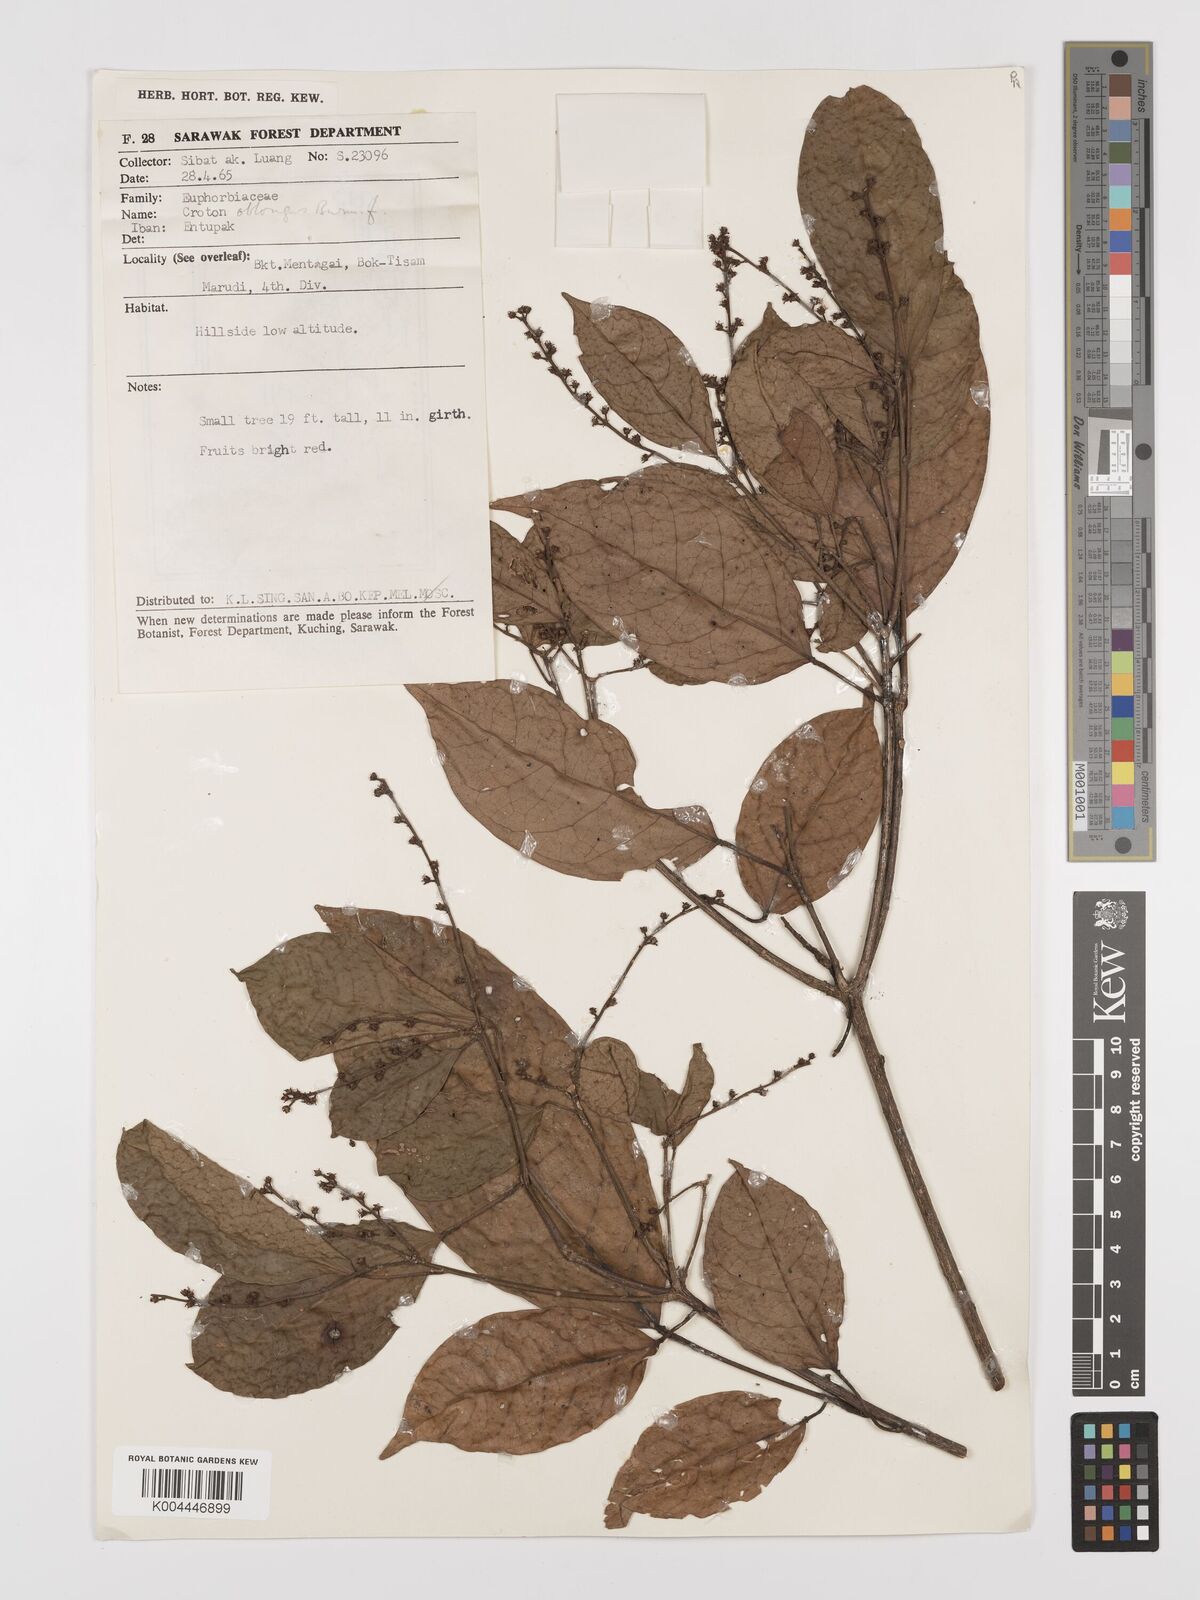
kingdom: Plantae
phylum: Tracheophyta
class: Magnoliopsida
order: Malpighiales
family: Euphorbiaceae
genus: Croton
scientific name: Croton oblongus
